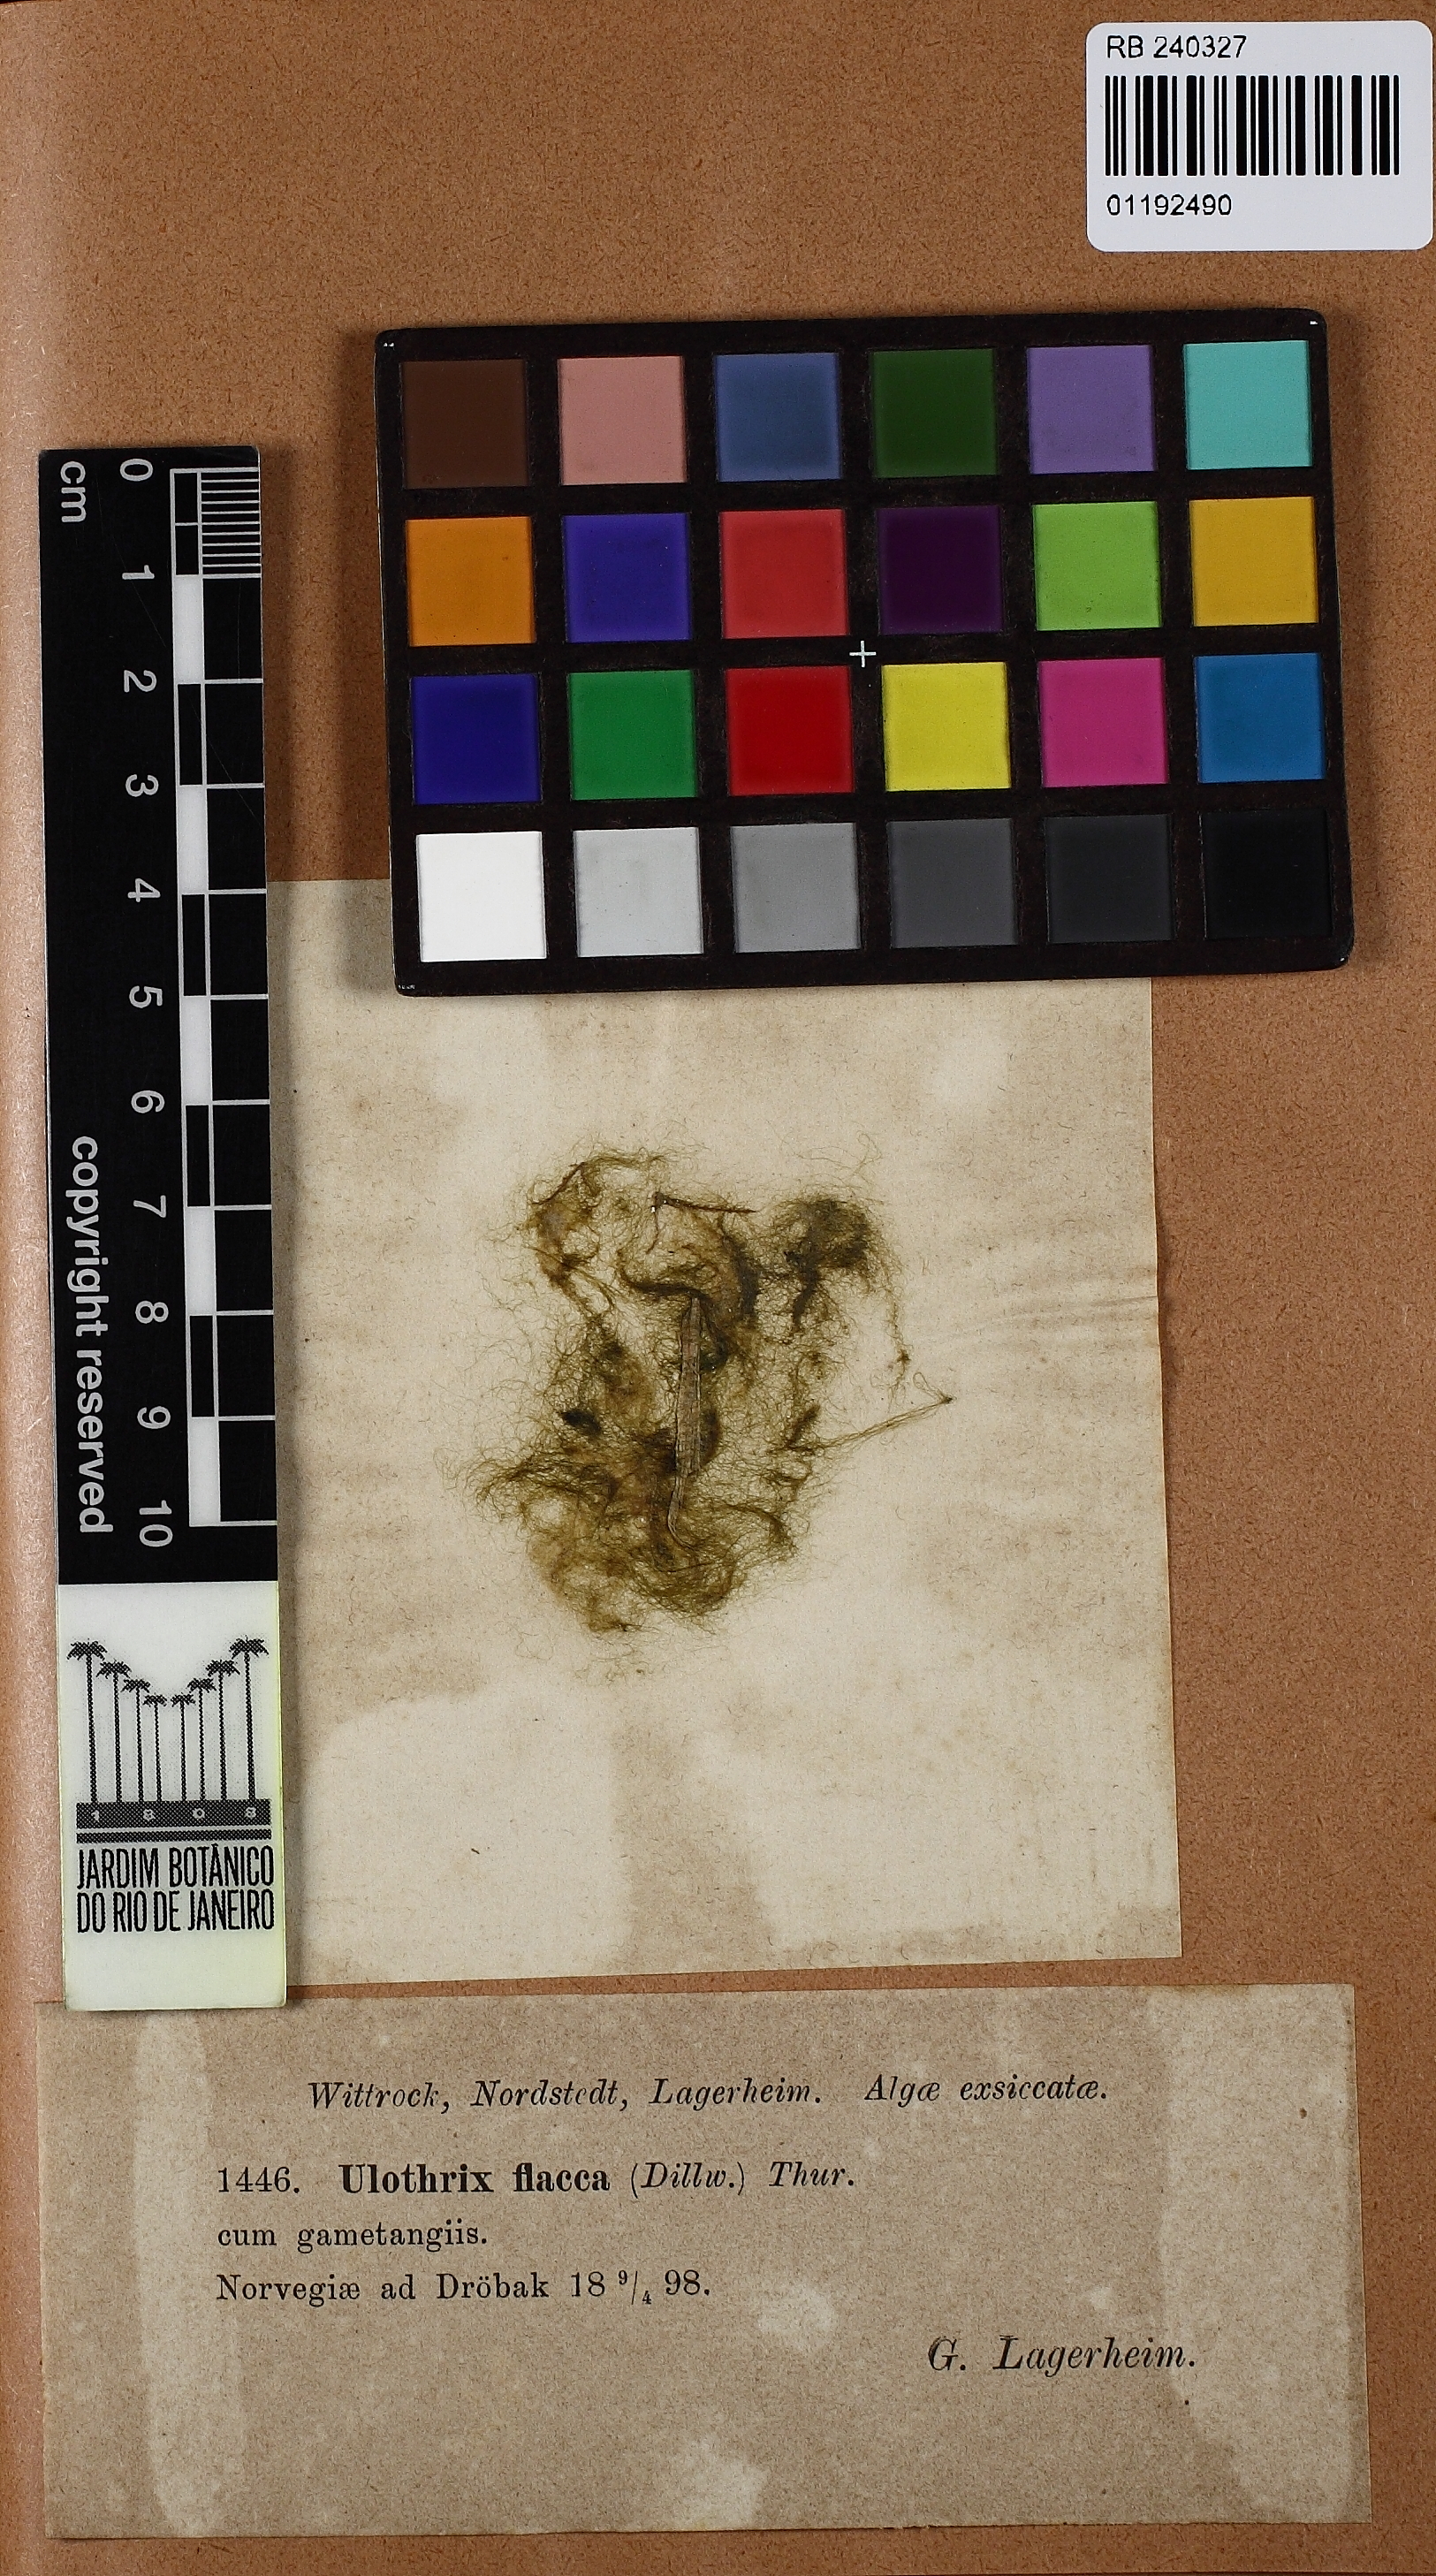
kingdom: Plantae
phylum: Chlorophyta
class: Ulvophyceae
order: Ulotrichales
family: Ulotrichaceae
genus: Ulothrix
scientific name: Ulothrix flacca
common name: Woolly hair
